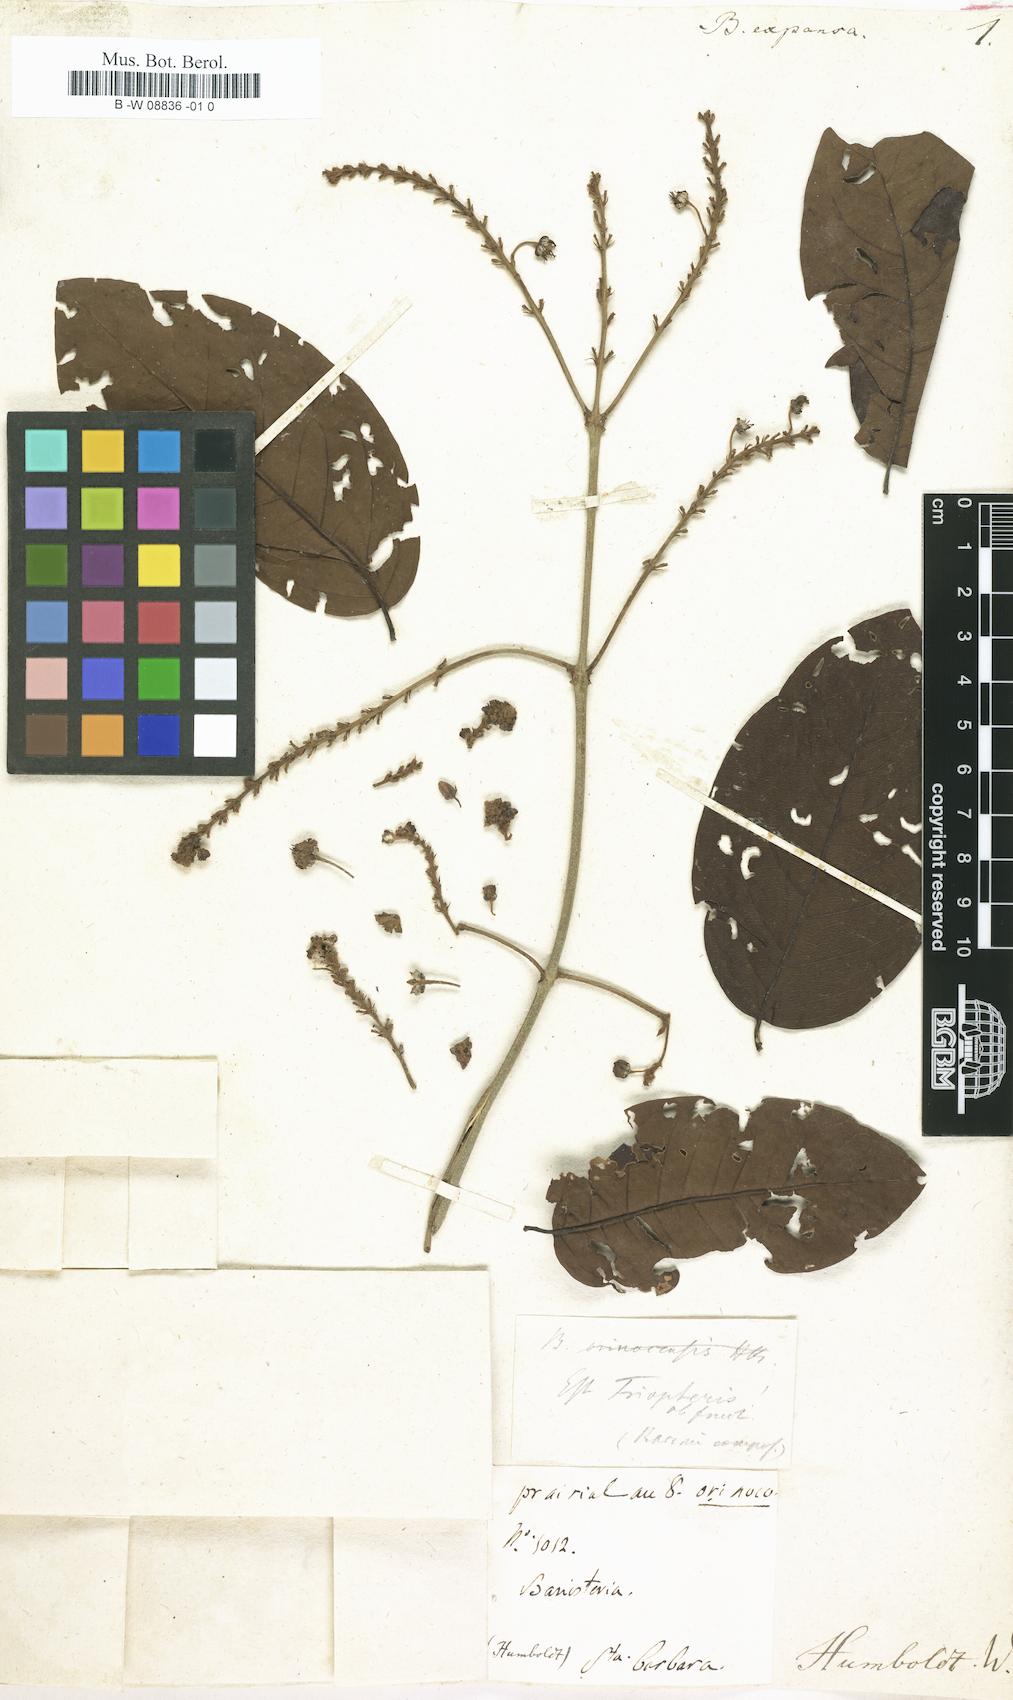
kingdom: Plantae
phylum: Tracheophyta
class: Magnoliopsida
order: Malpighiales
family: Malpighiaceae
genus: Heteropterys
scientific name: Heteropterys
